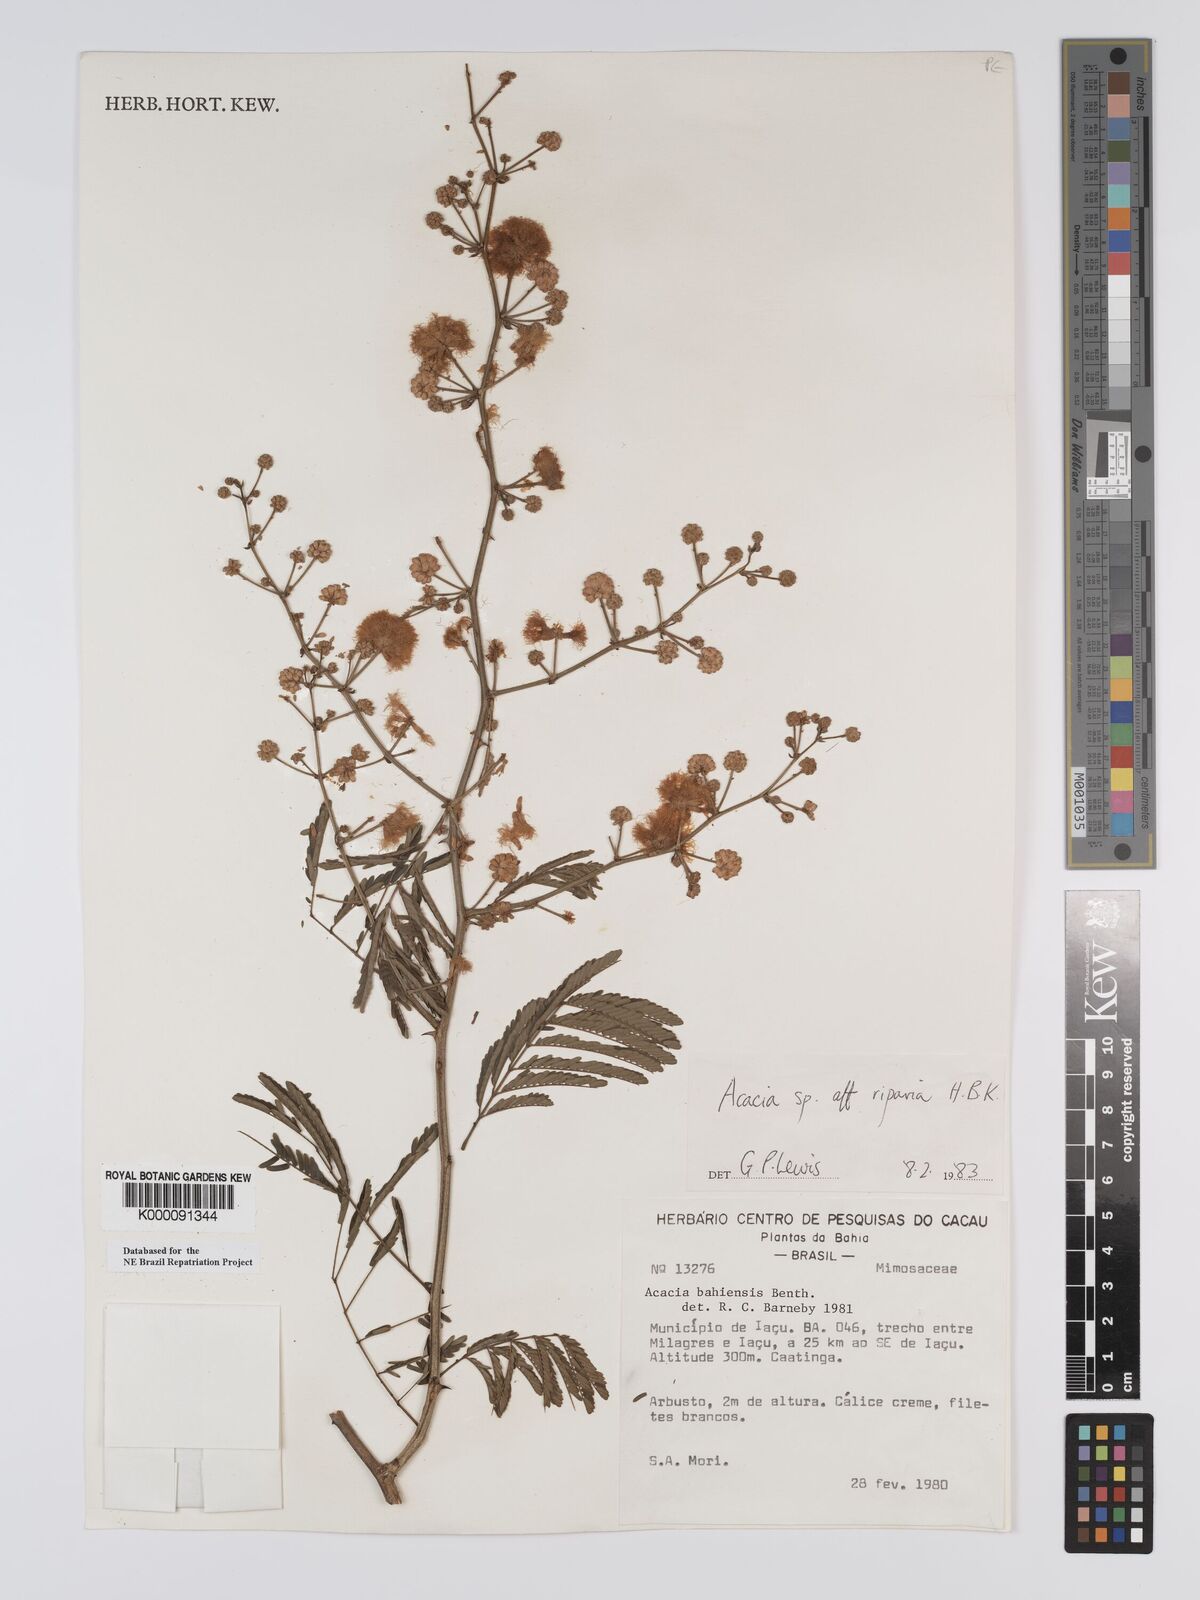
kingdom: Plantae
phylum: Tracheophyta
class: Magnoliopsida
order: Fabales
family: Fabaceae
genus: Senegalia
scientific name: Senegalia riparia
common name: Catch-and-keep
